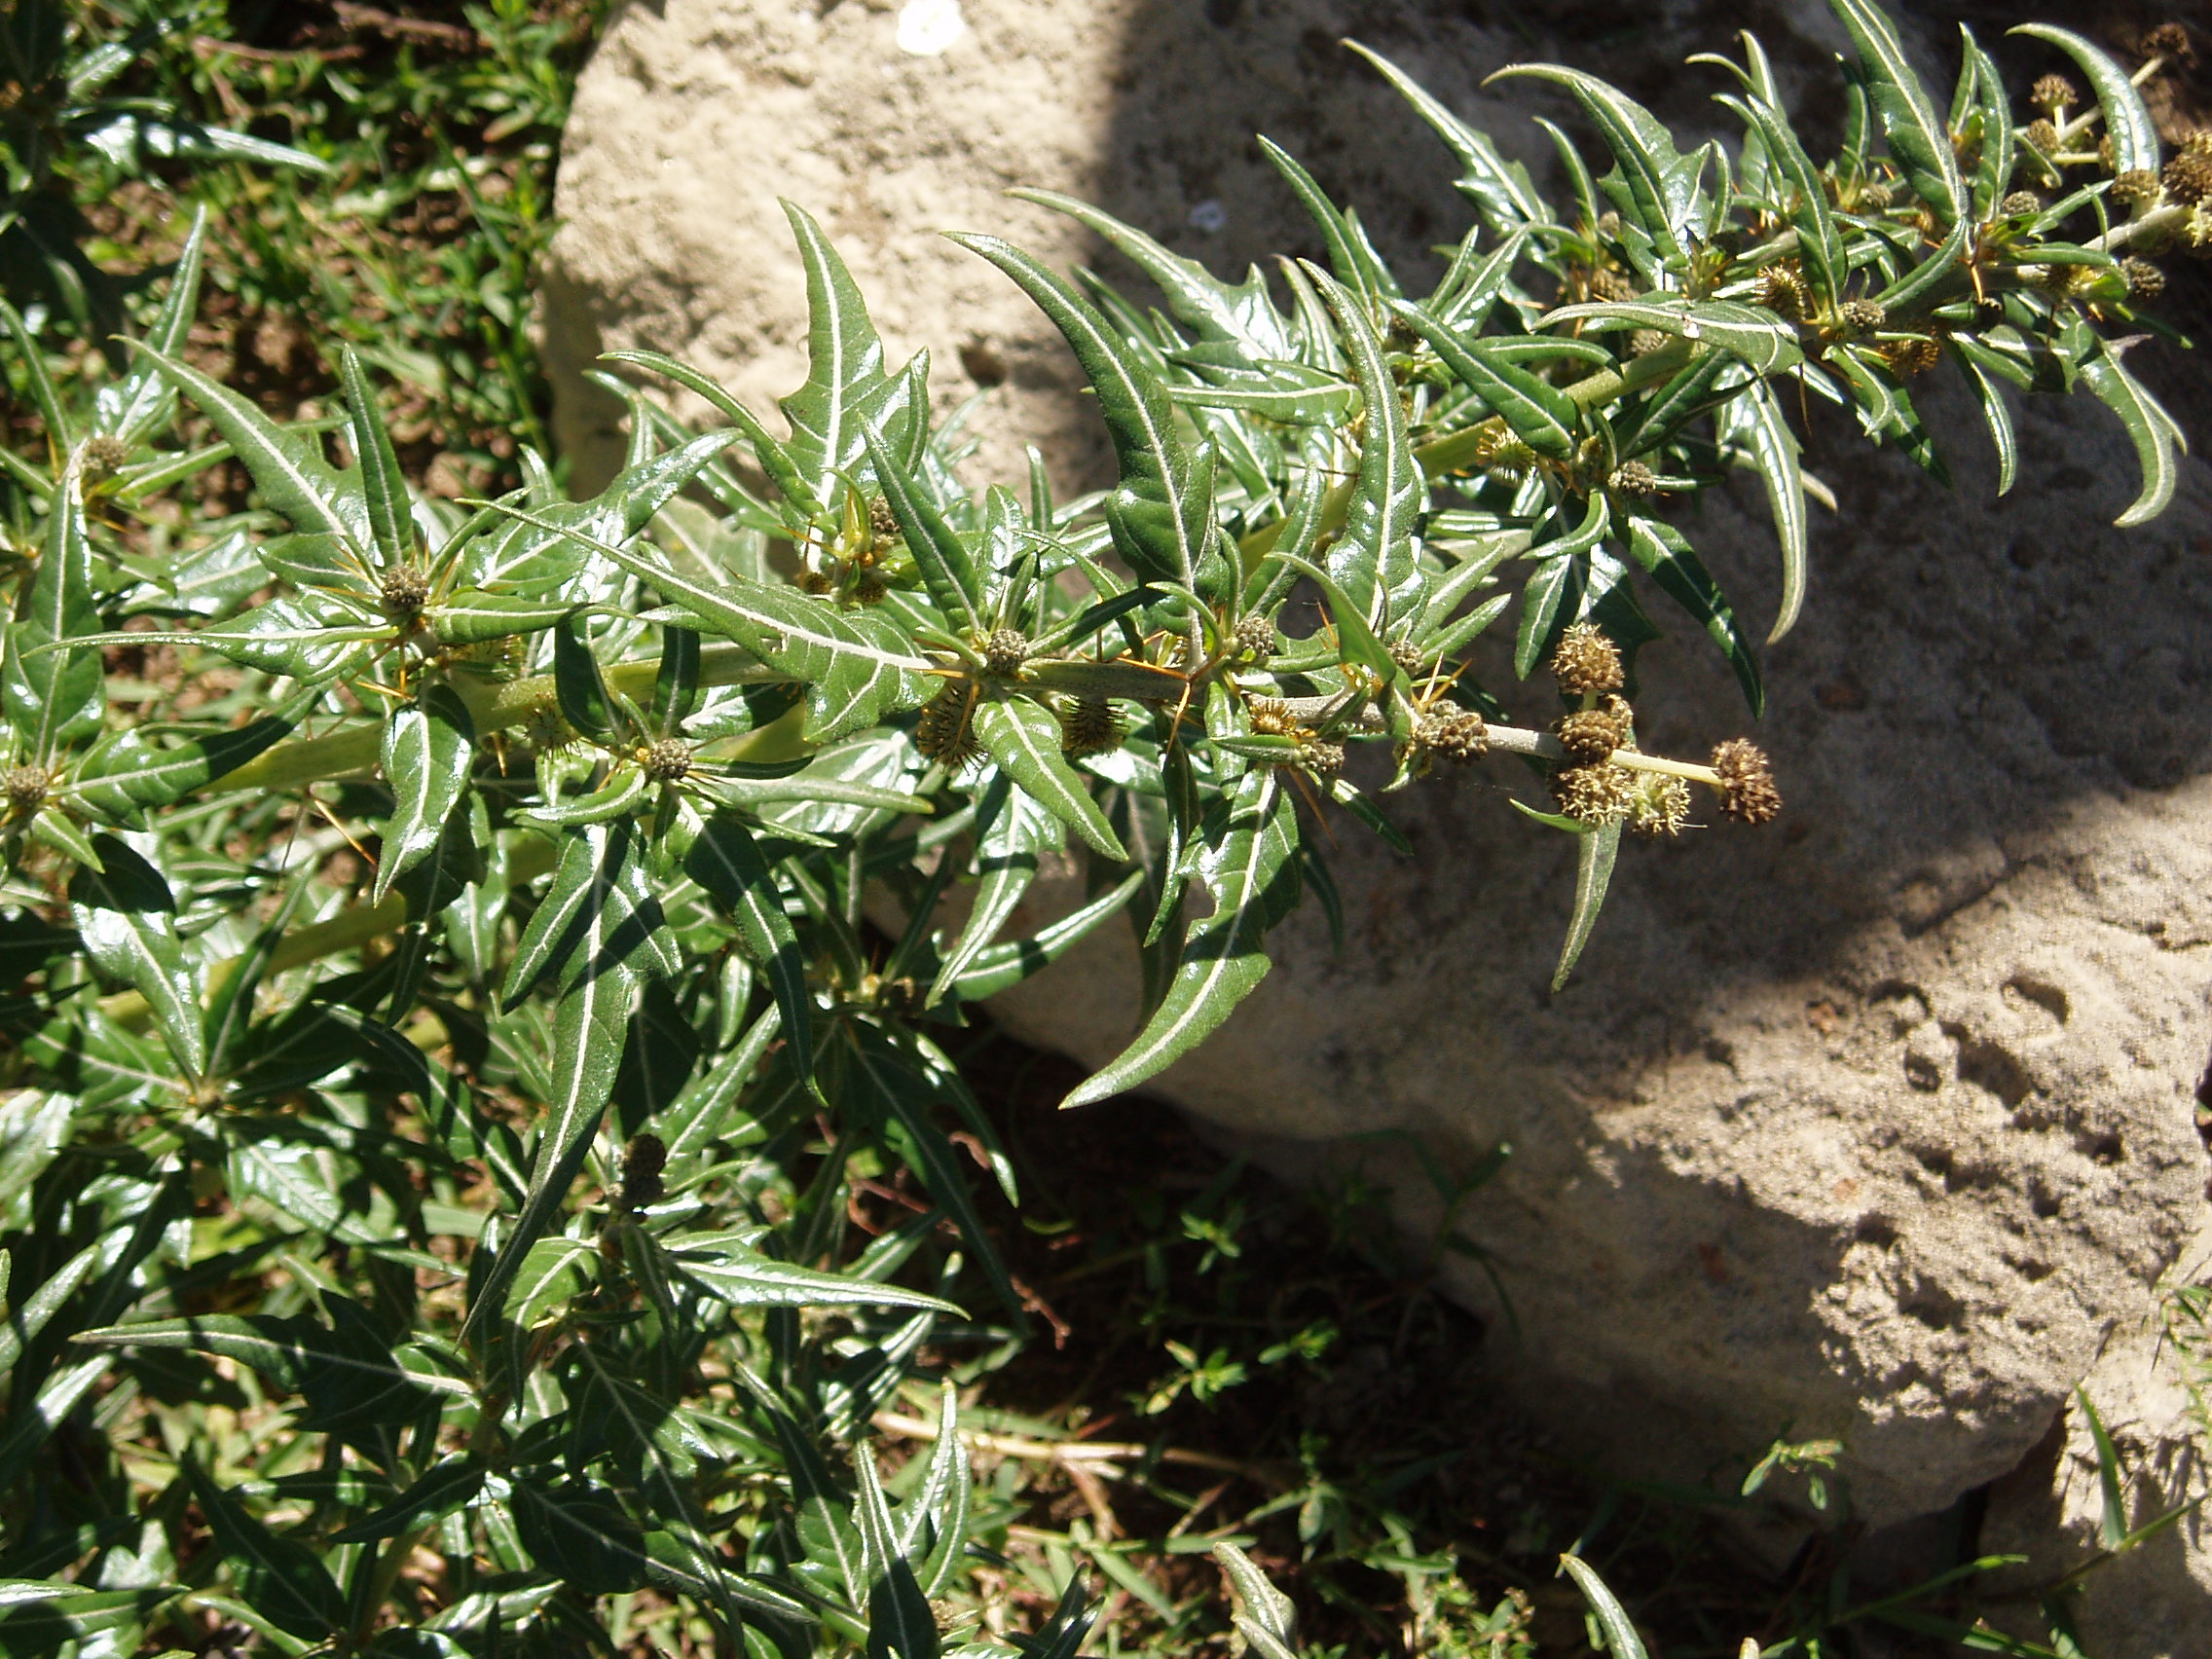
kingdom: Plantae
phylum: Tracheophyta
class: Magnoliopsida
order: Asterales
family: Asteraceae
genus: Xanthium
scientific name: Xanthium spinosum
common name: Spiny cocklebur
